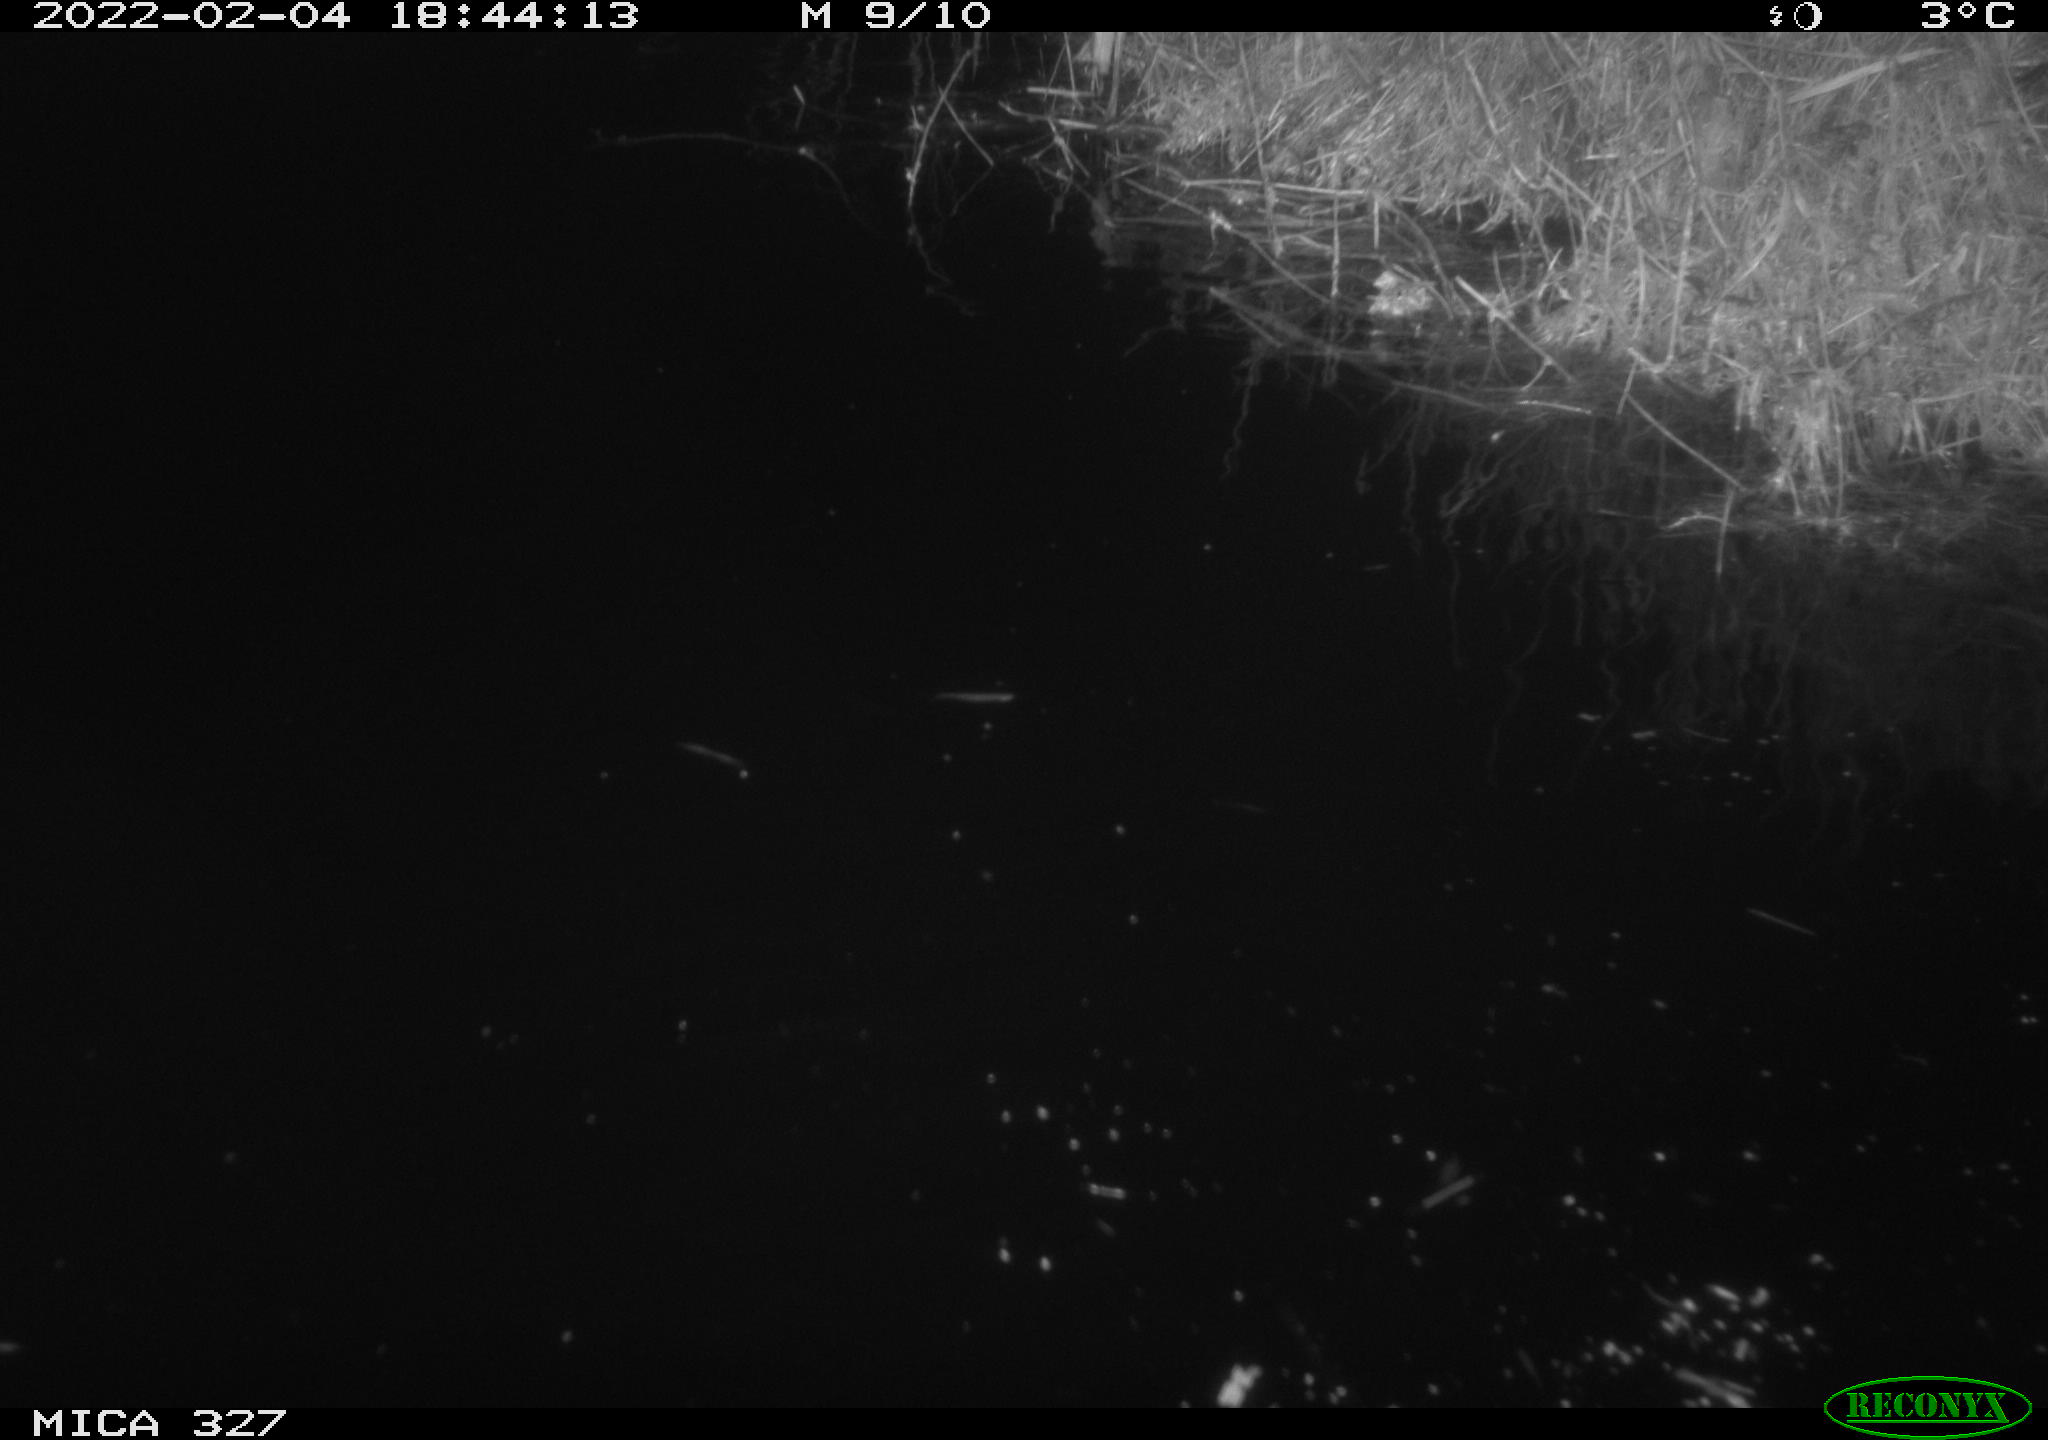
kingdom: Animalia
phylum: Chordata
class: Mammalia
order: Rodentia
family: Cricetidae
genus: Ondatra
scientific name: Ondatra zibethicus
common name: Muskrat
